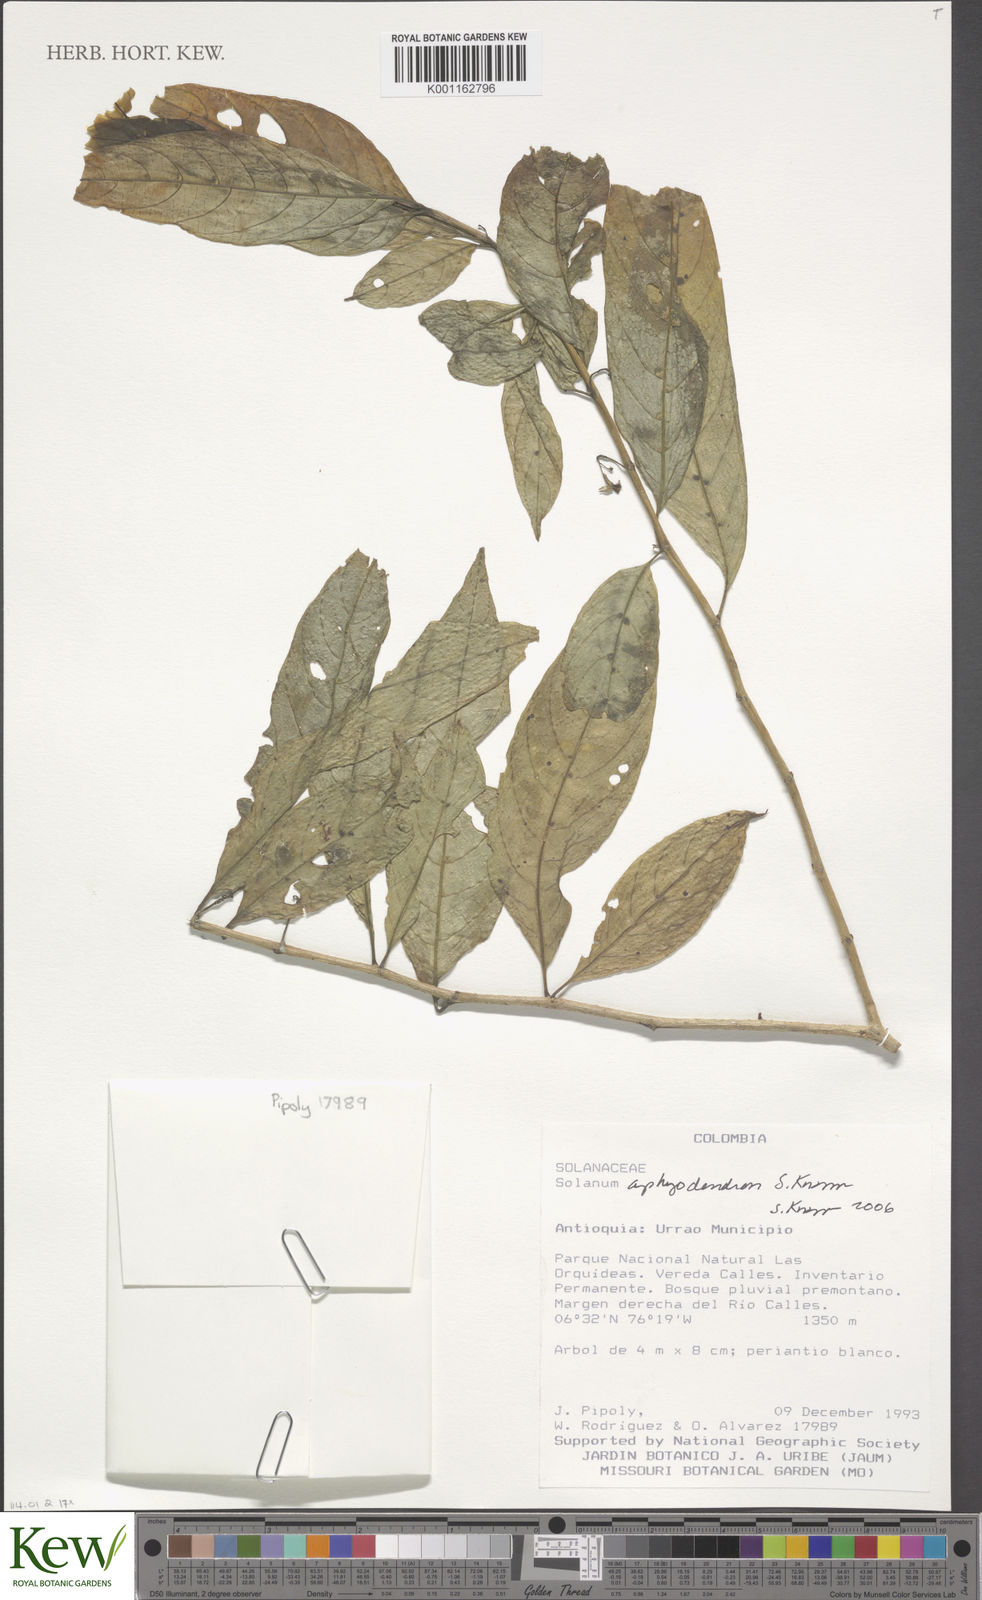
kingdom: Plantae
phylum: Tracheophyta
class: Magnoliopsida
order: Solanales
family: Solanaceae
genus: Solanum
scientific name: Solanum aphyodendron
